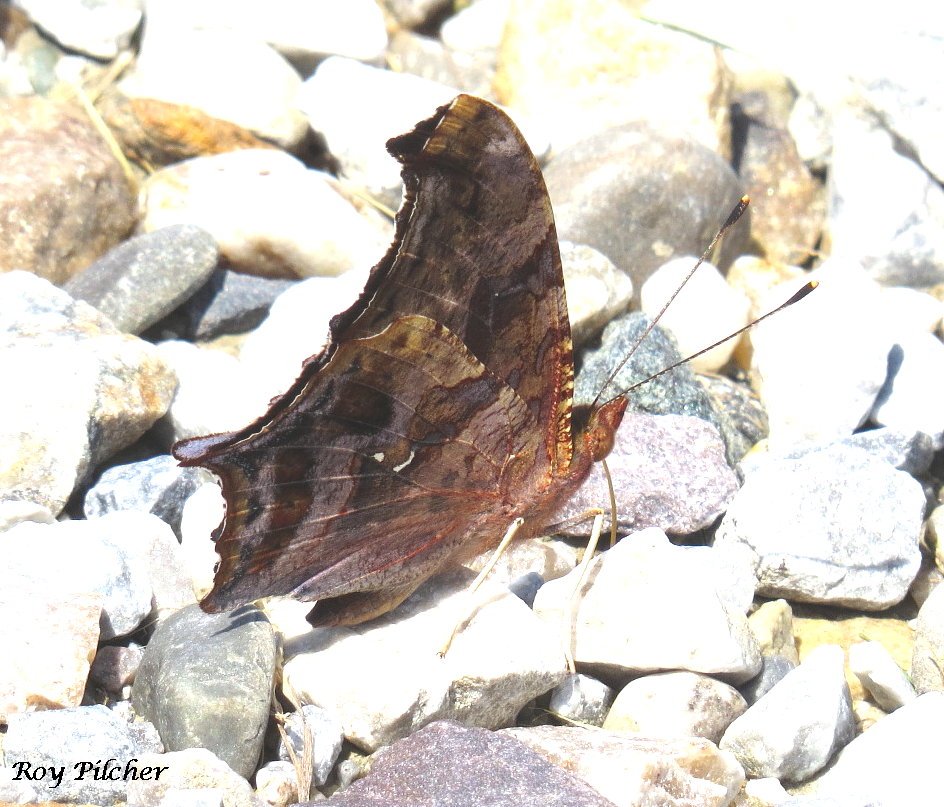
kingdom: Animalia
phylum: Arthropoda
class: Insecta
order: Lepidoptera
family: Nymphalidae
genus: Polygonia
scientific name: Polygonia interrogationis
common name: Question Mark
